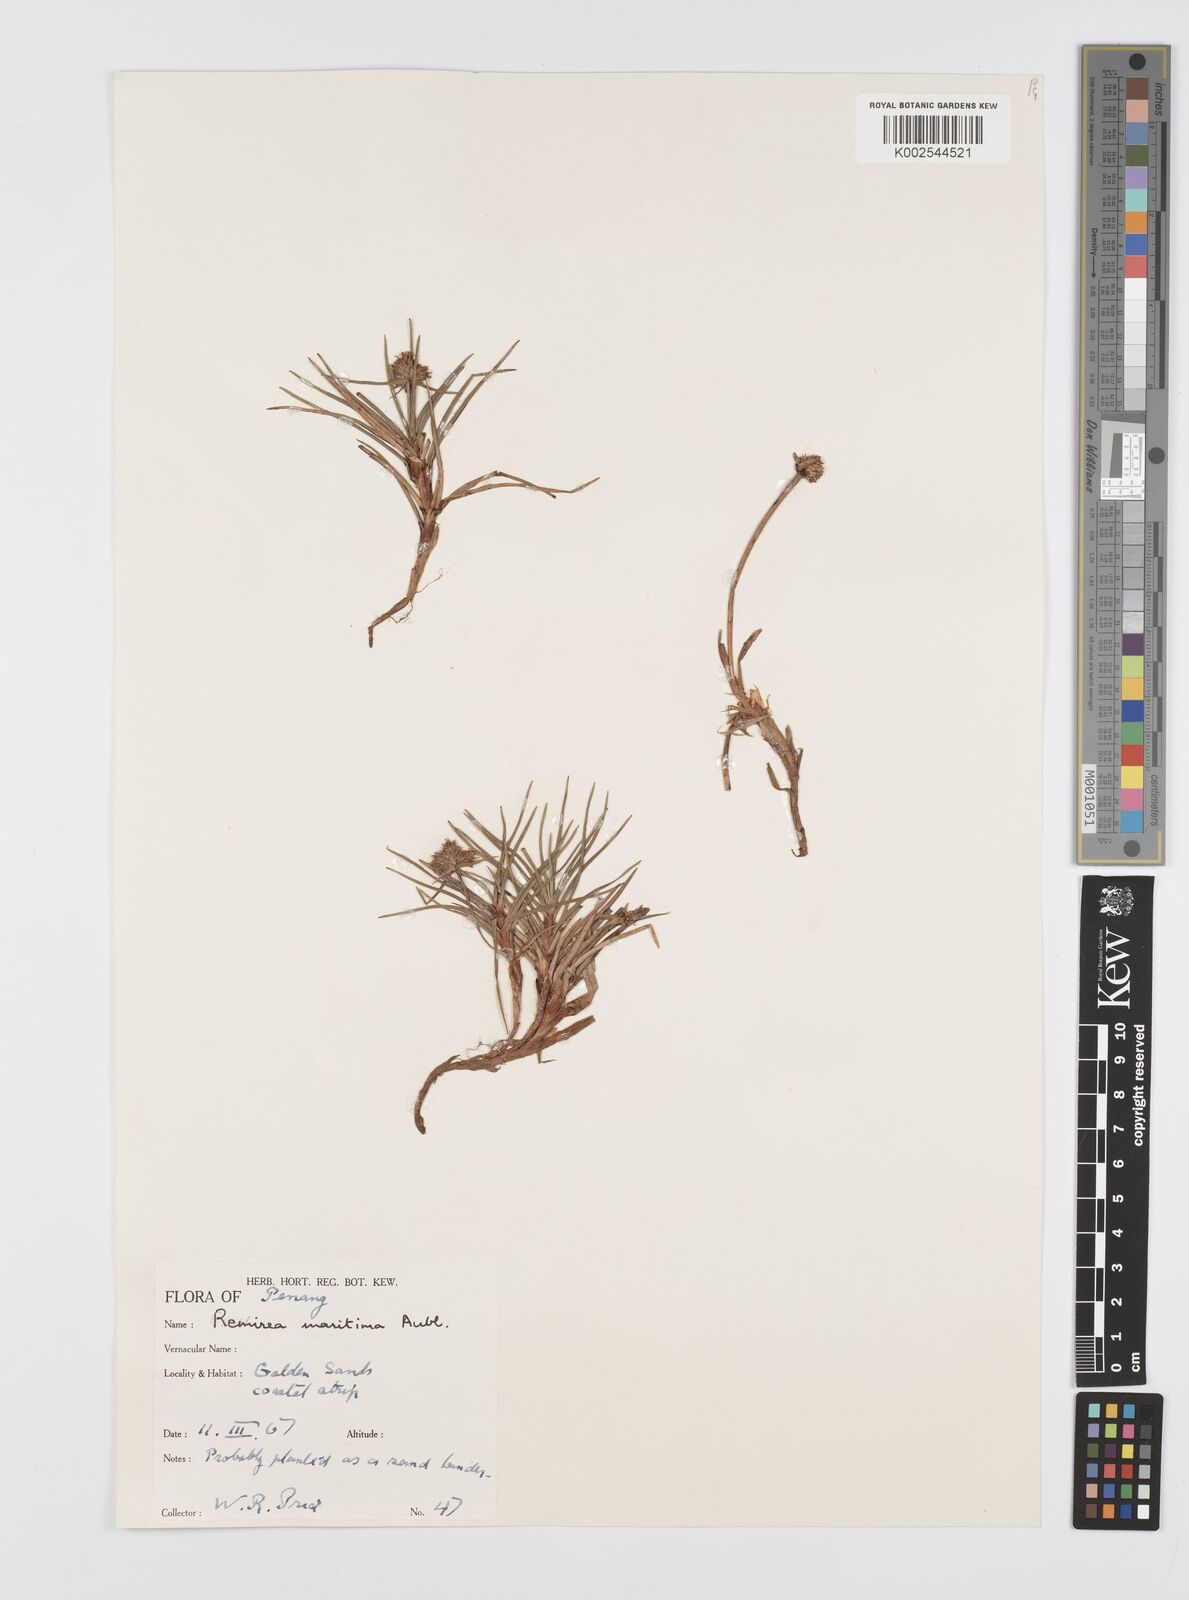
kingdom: Plantae
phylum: Tracheophyta
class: Liliopsida
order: Poales
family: Cyperaceae
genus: Cyperus
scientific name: Cyperus
